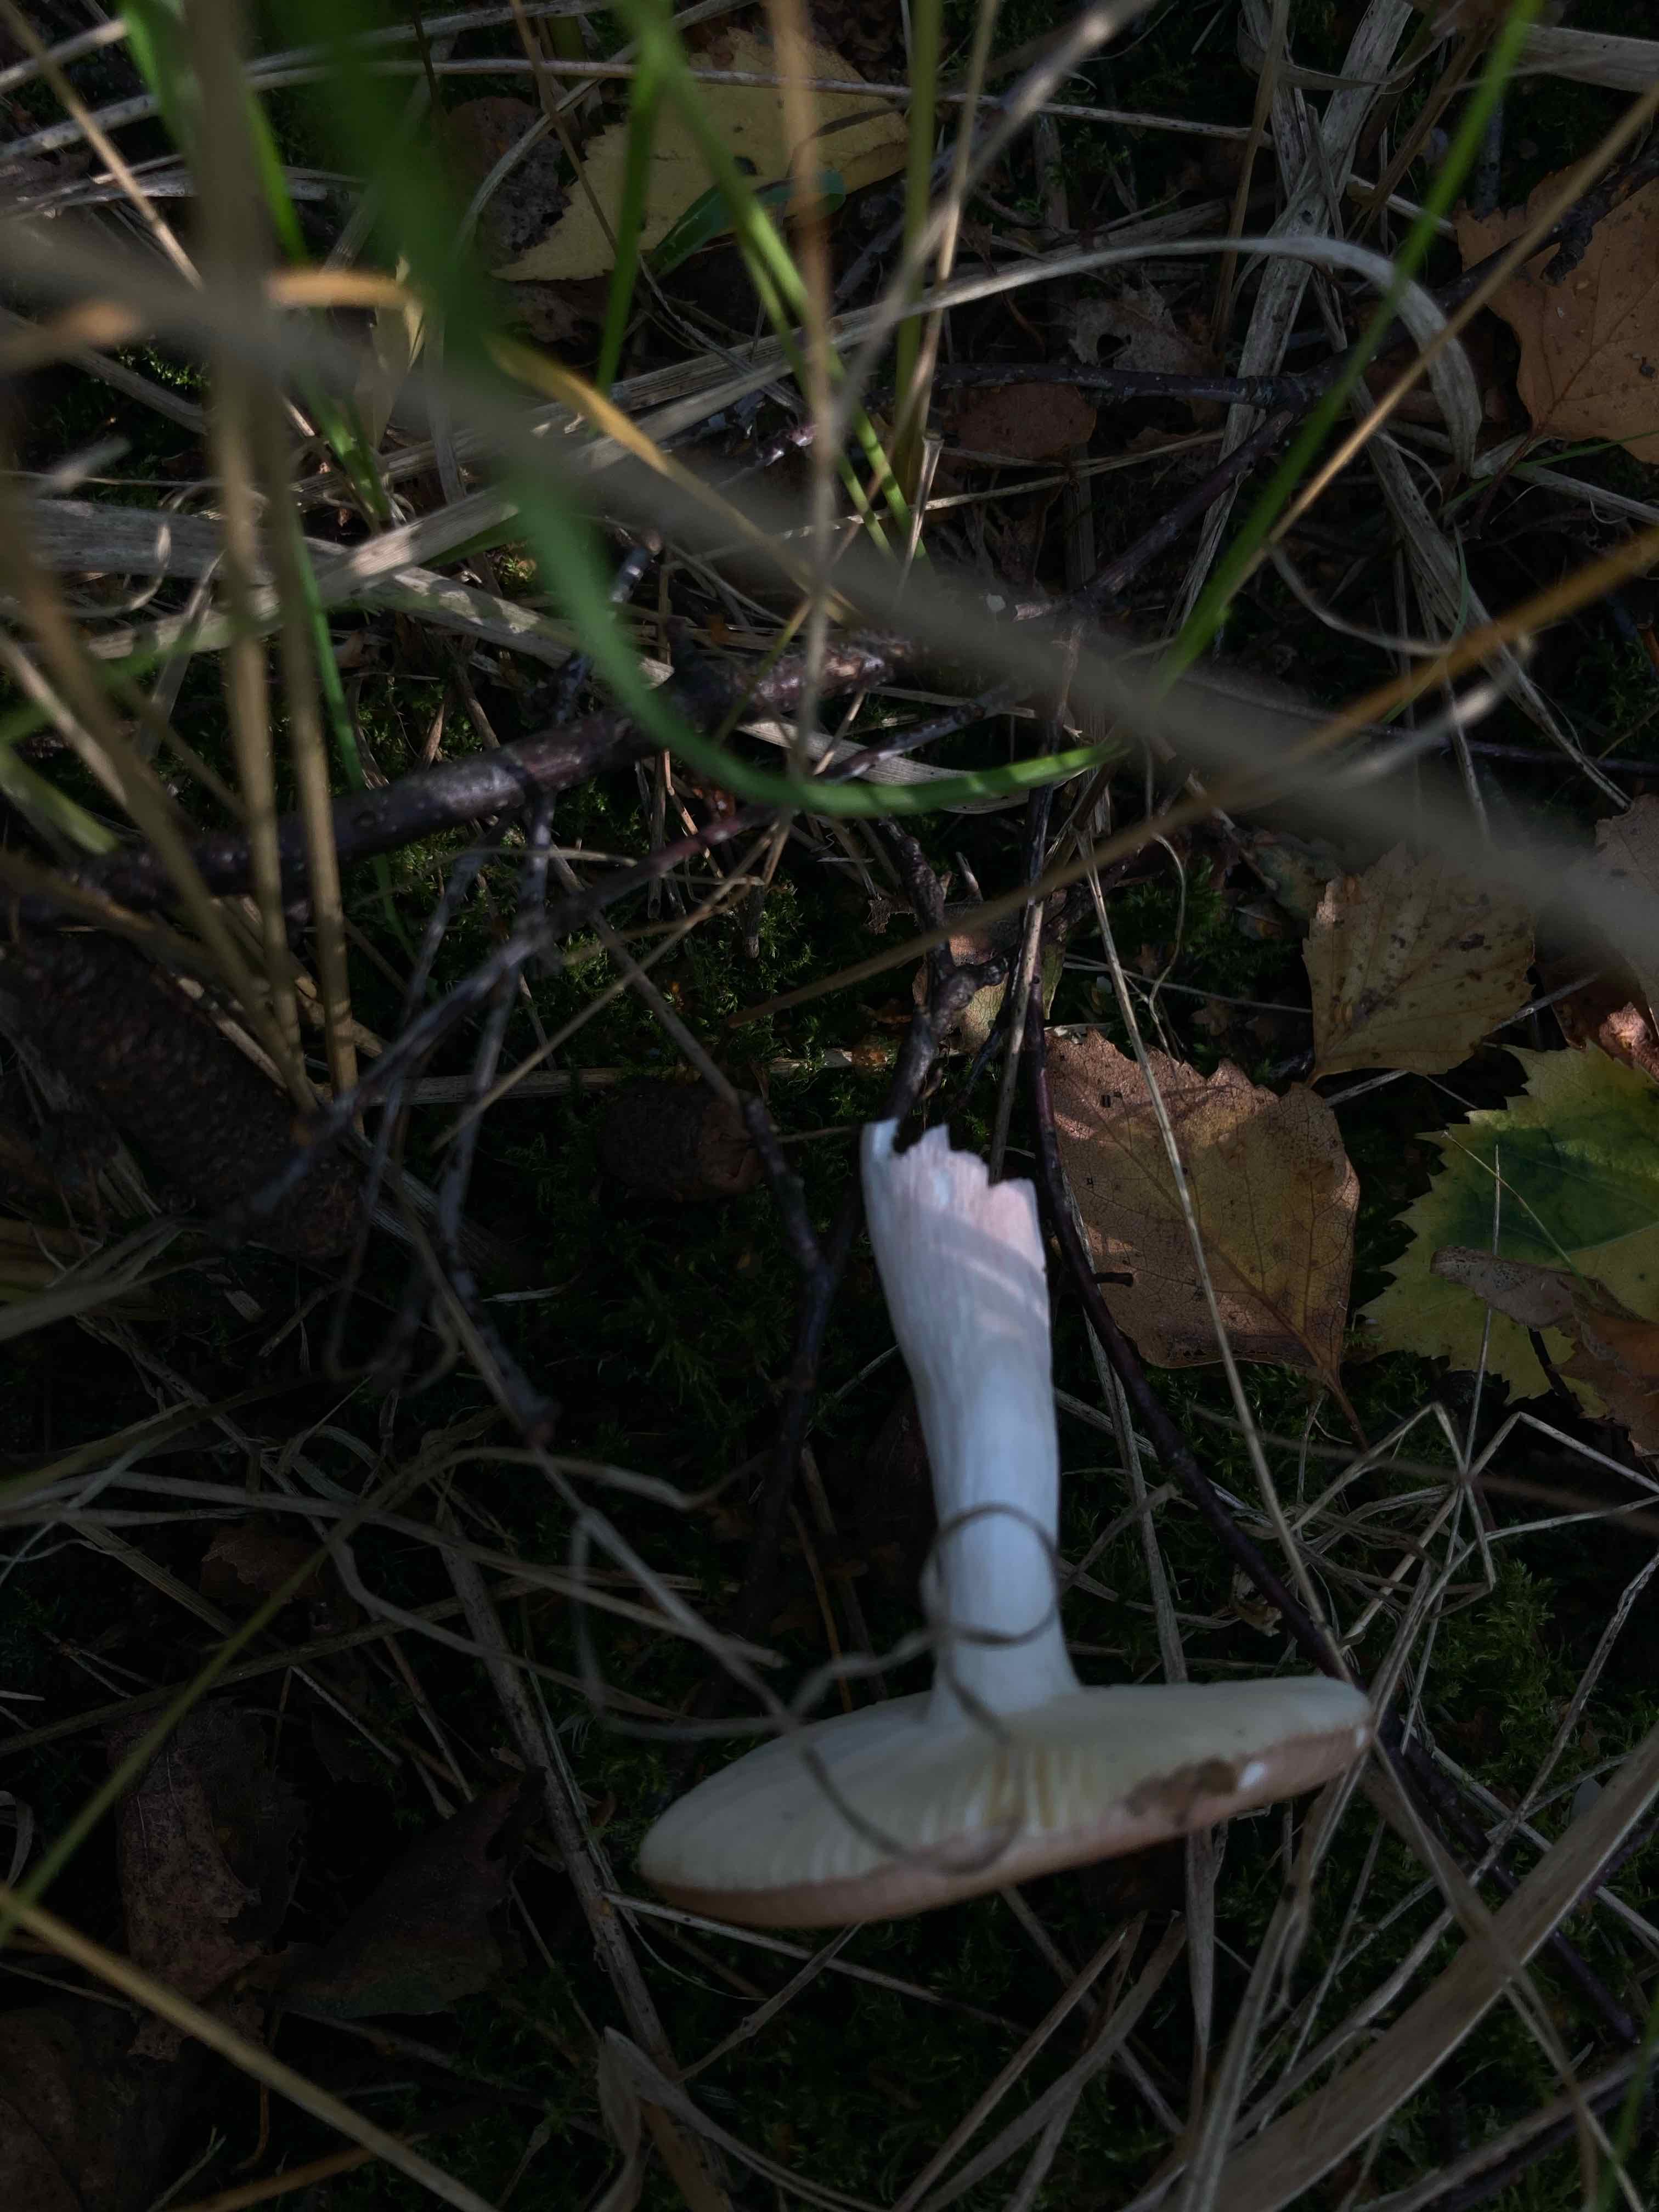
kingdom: Fungi
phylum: Basidiomycota
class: Agaricomycetes
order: Russulales
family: Russulaceae
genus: Russula
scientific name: Russula
